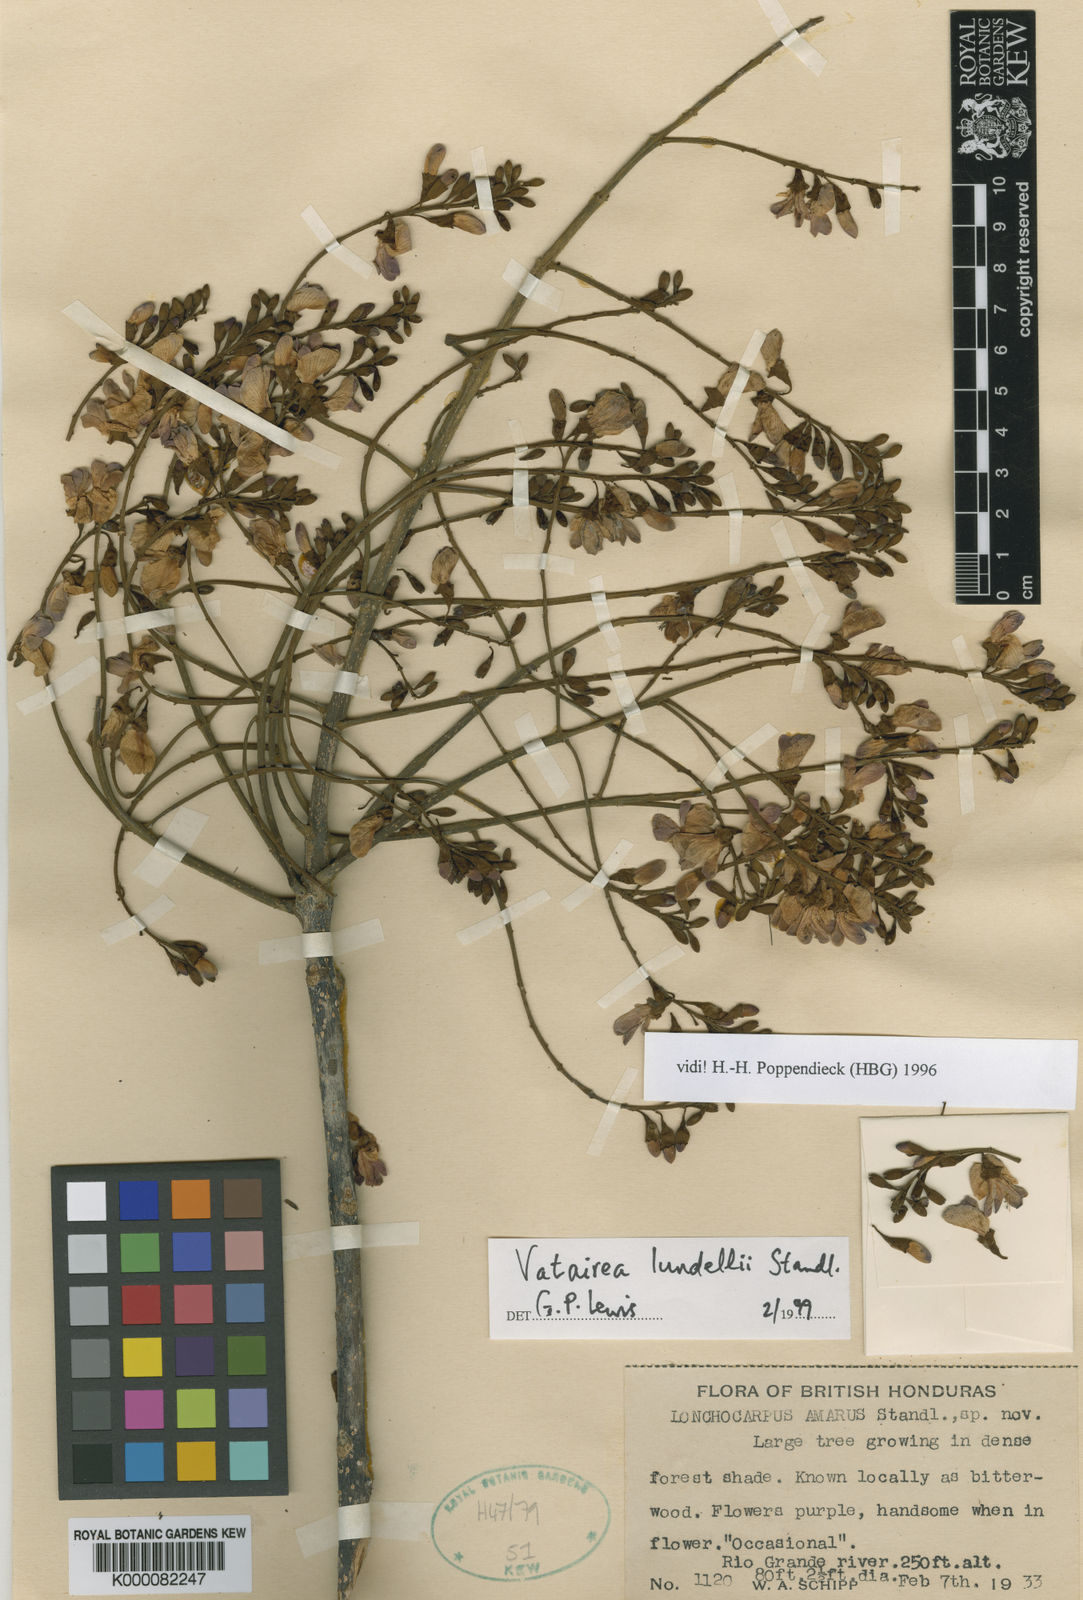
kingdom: Plantae
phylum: Tracheophyta
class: Magnoliopsida
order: Fabales
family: Fabaceae
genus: Vatairea
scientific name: Vatairea lundellii
